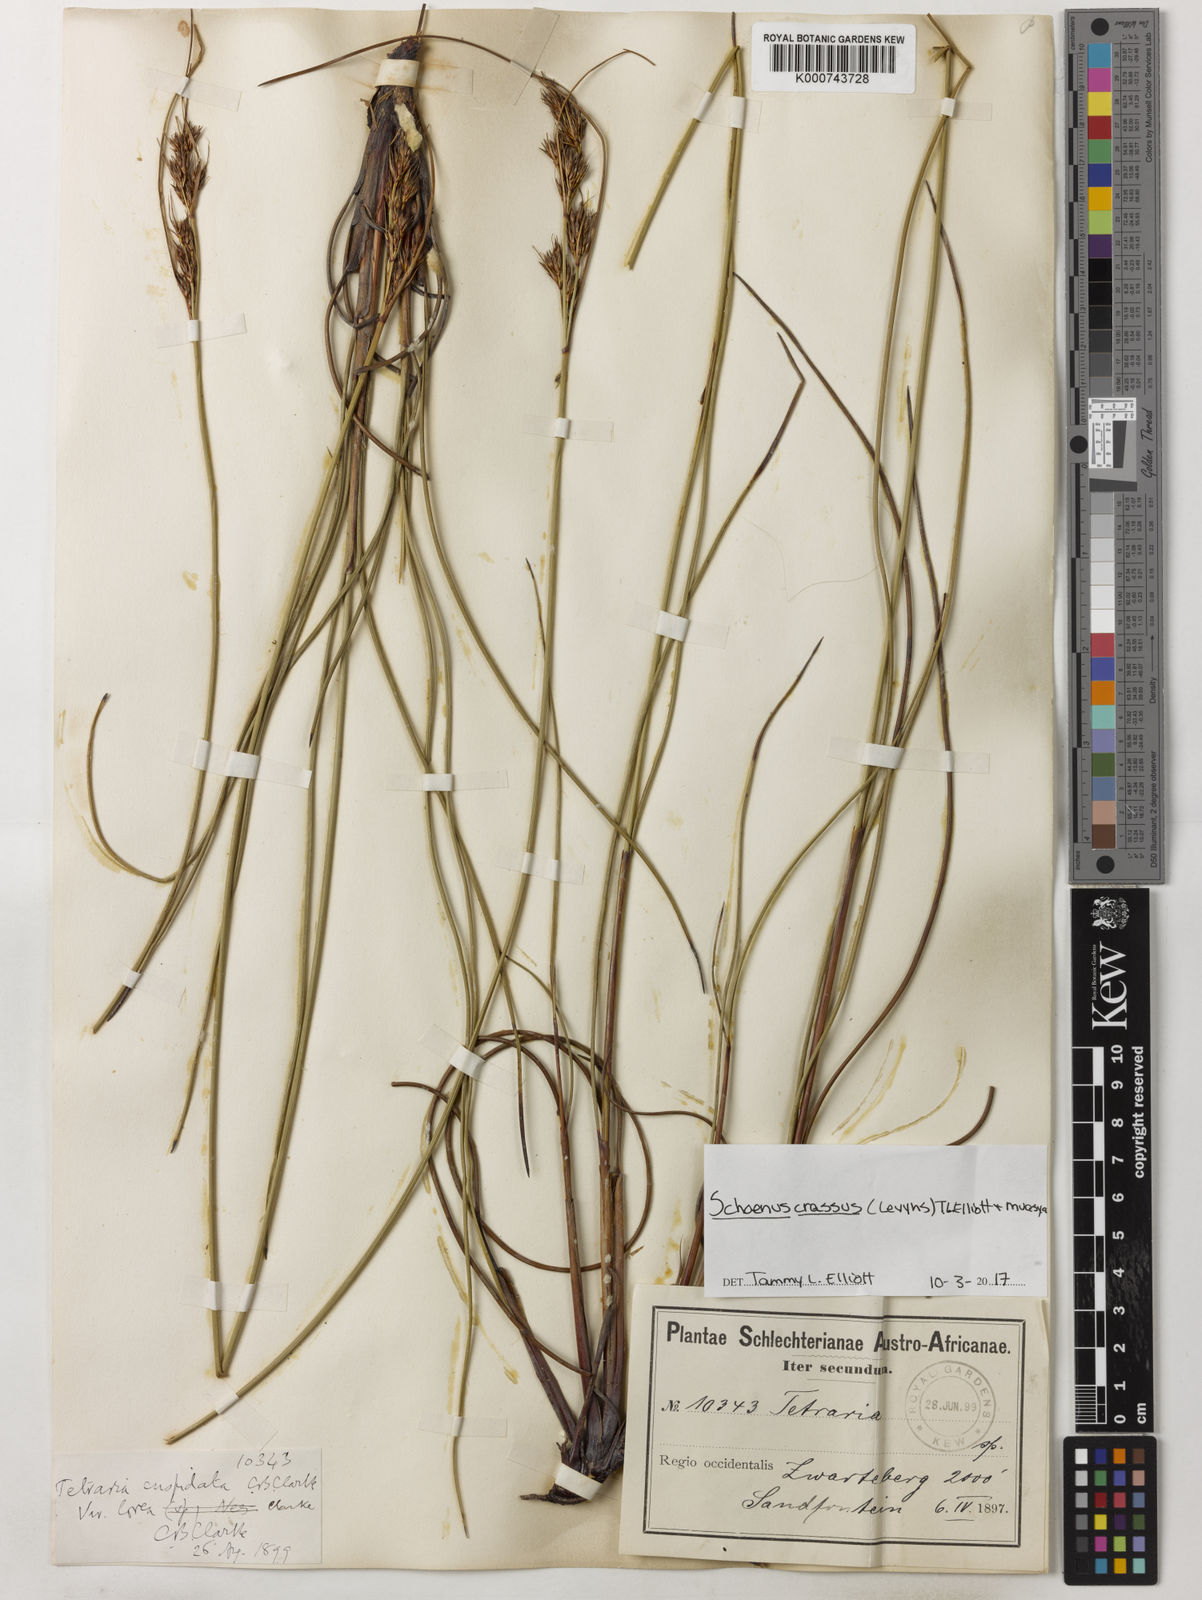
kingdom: Plantae
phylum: Tracheophyta
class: Liliopsida
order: Poales
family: Cyperaceae
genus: Schoenus
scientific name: Schoenus crassus
